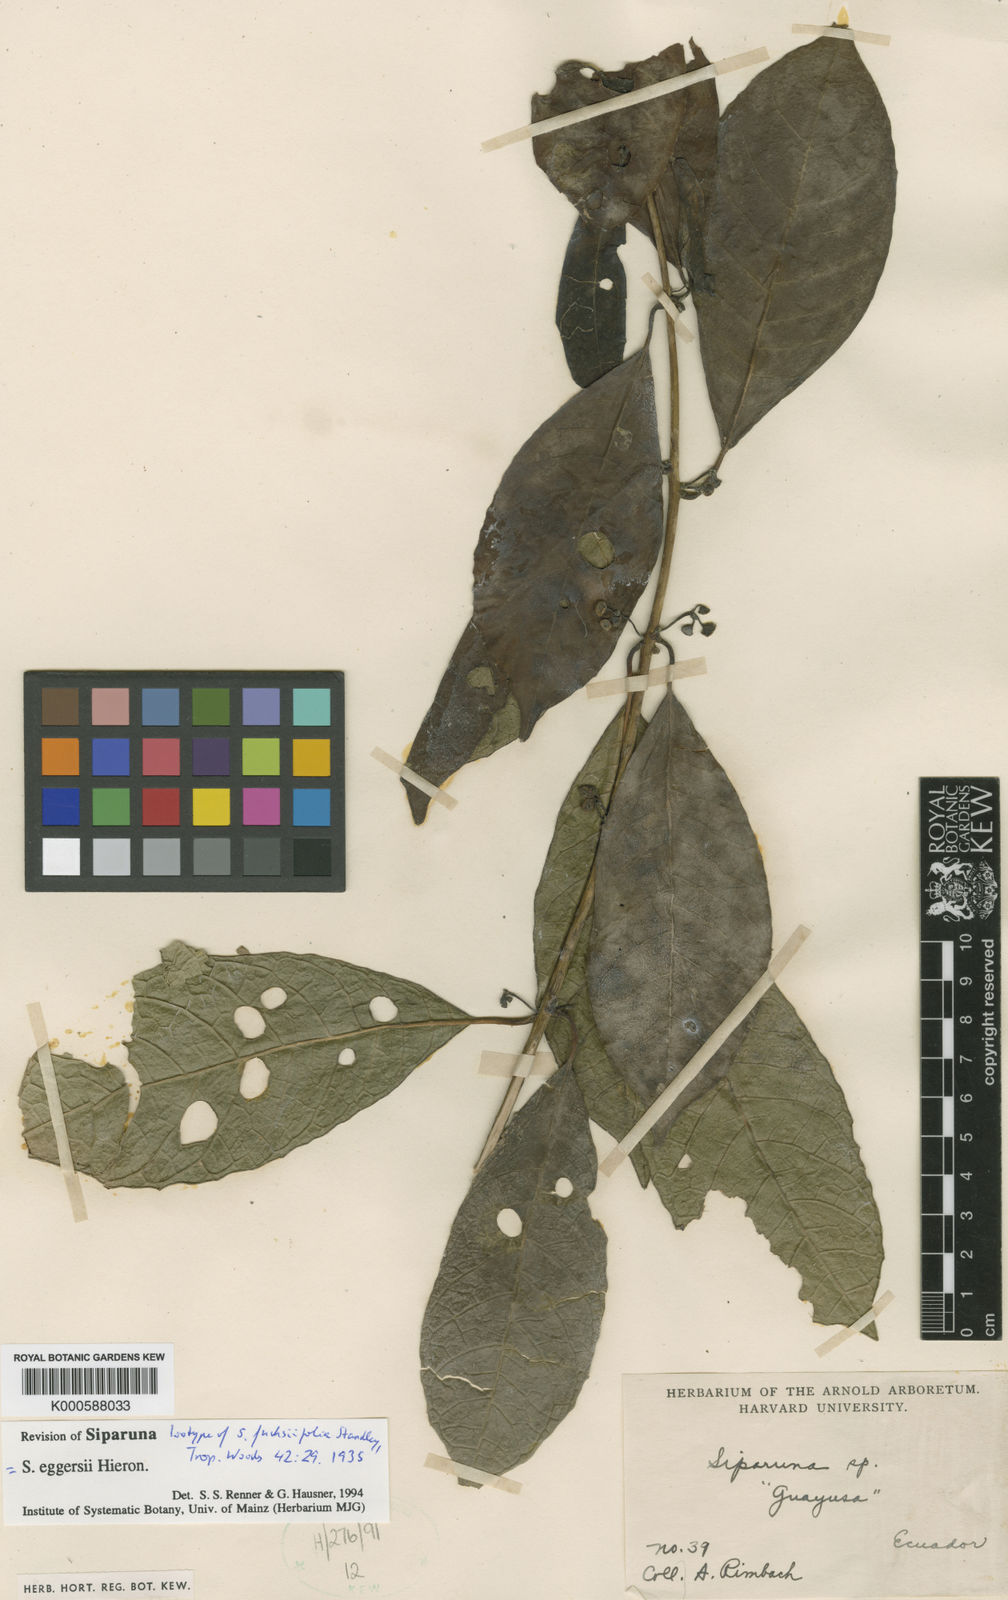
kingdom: Plantae
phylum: Tracheophyta
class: Magnoliopsida
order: Laurales
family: Siparunaceae
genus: Siparuna
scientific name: Siparuna eggersii
